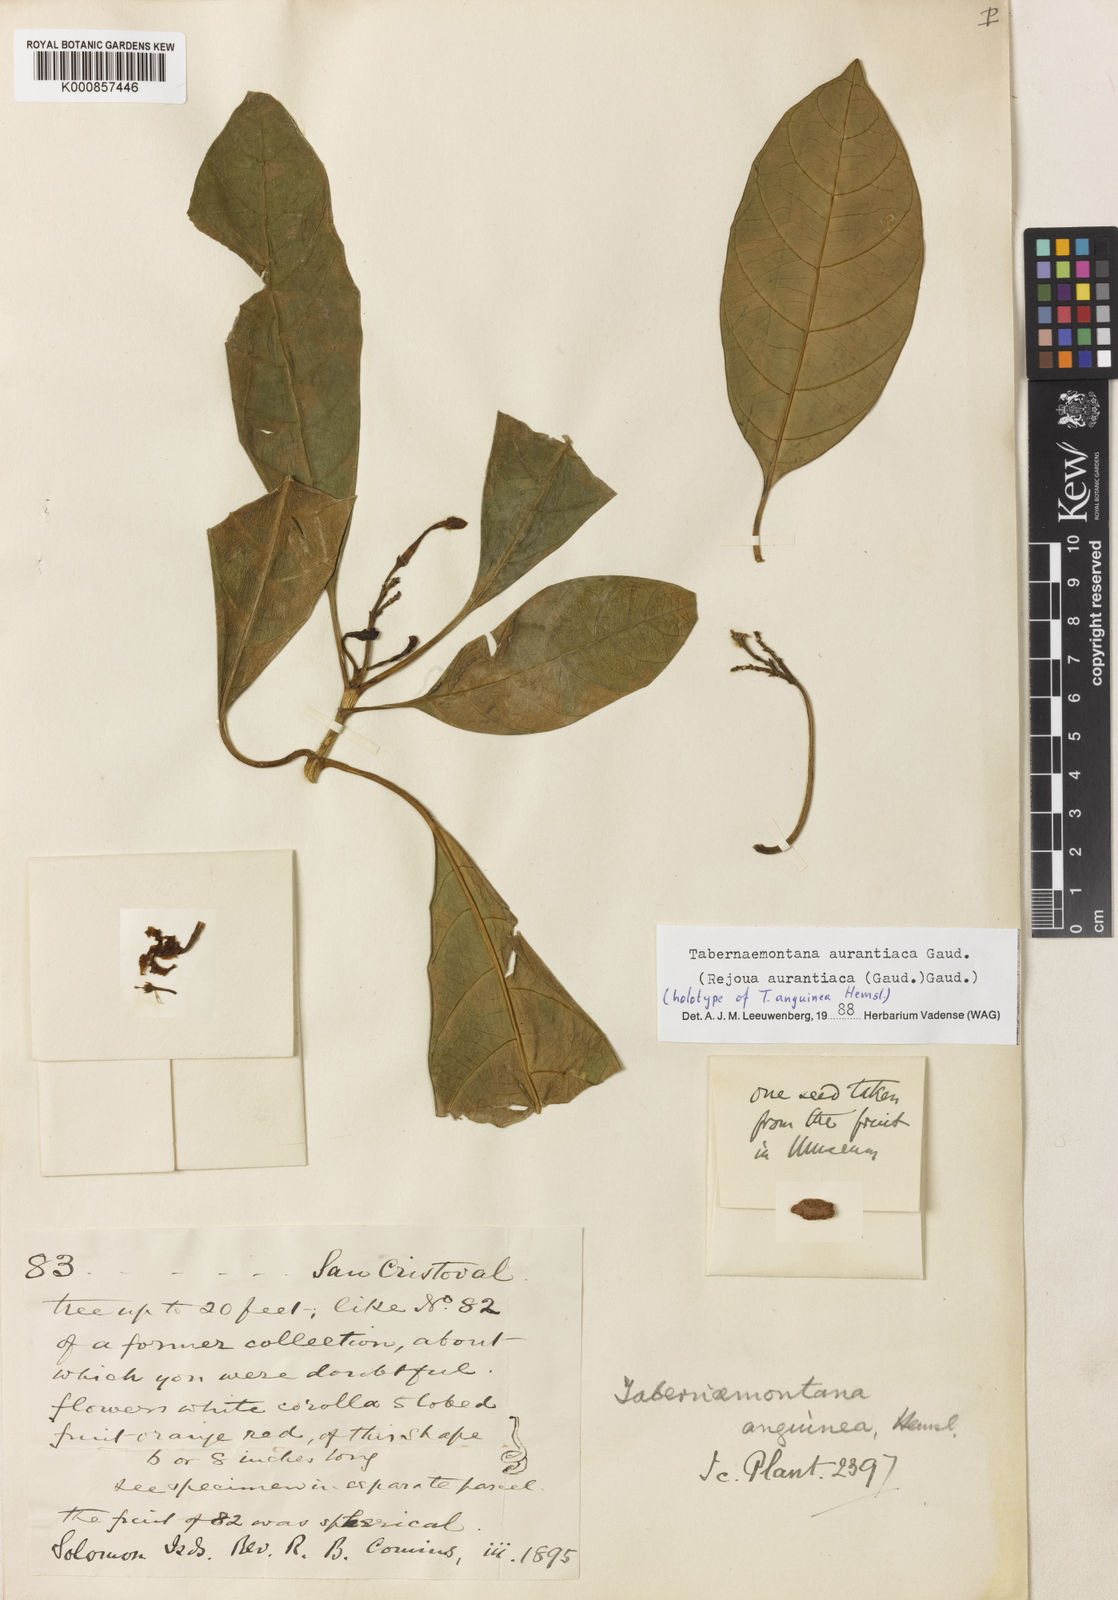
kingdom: Plantae
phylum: Tracheophyta
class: Magnoliopsida
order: Gentianales
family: Apocynaceae
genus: Tabernaemontana
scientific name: Tabernaemontana aurantiaca
